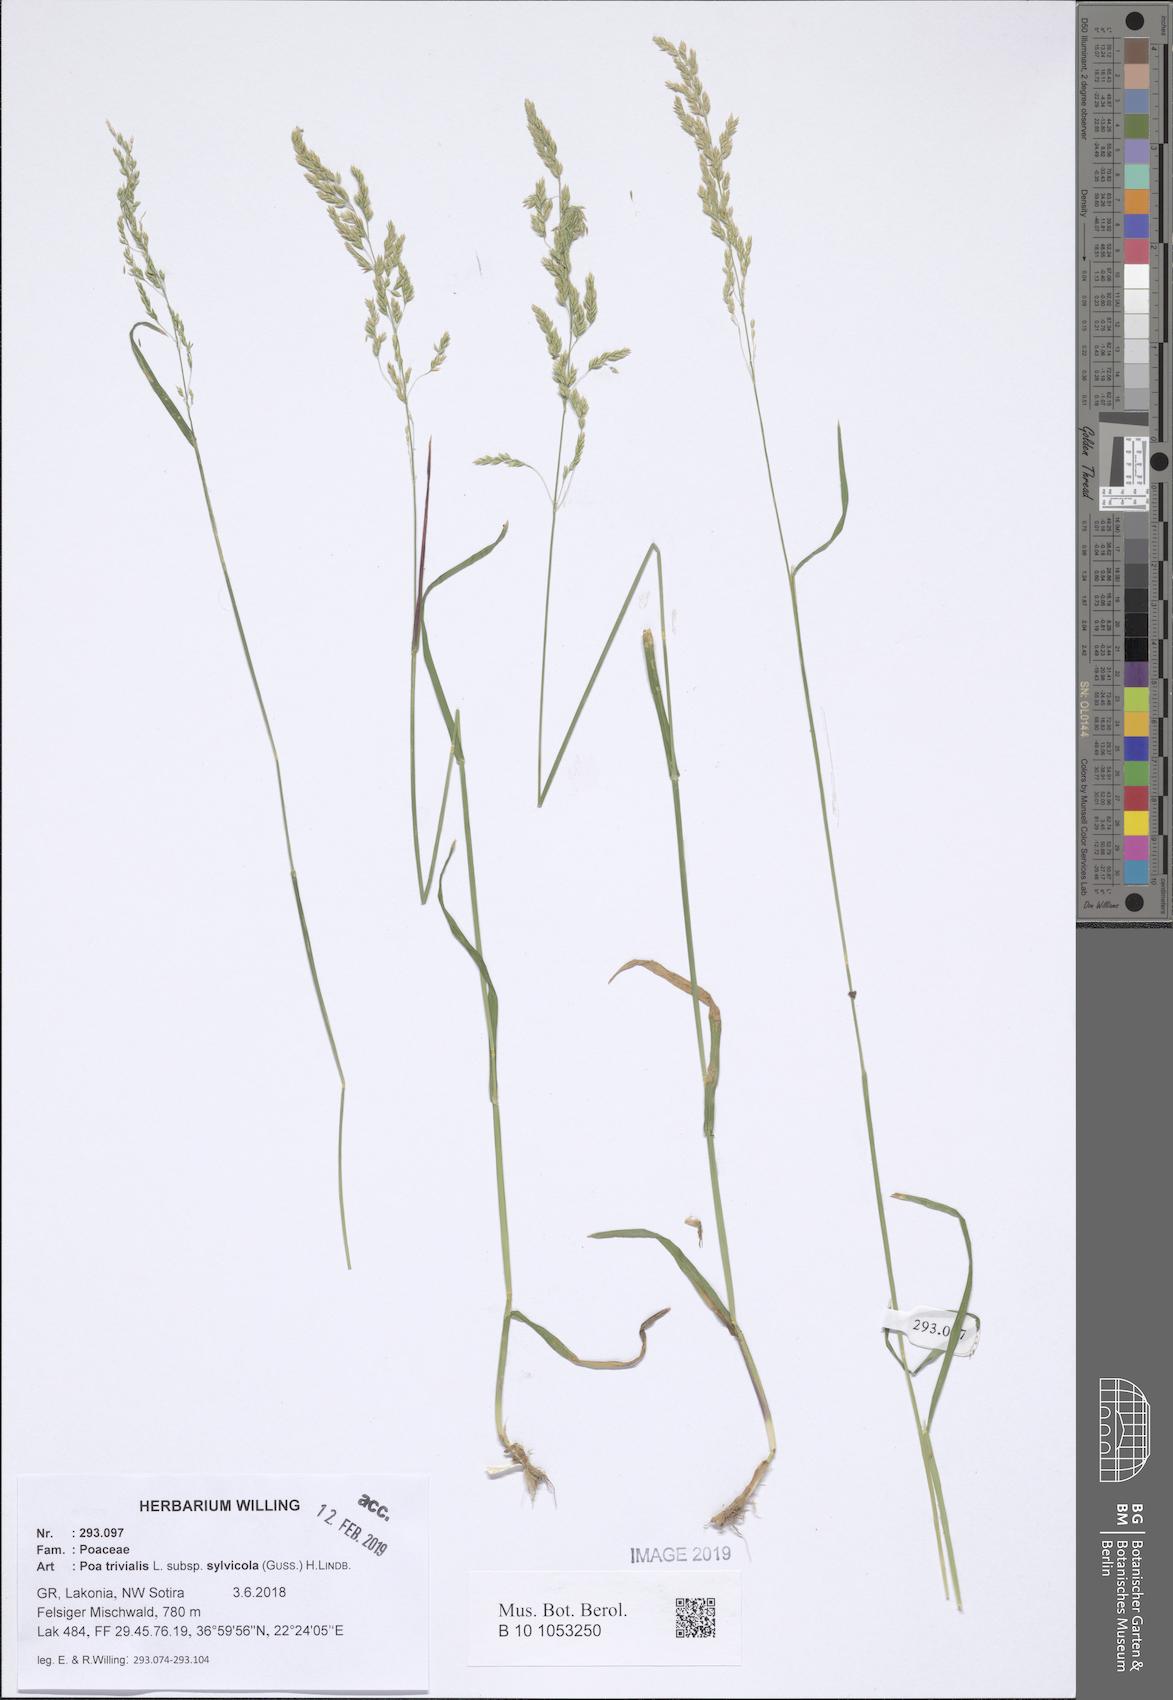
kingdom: Plantae
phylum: Tracheophyta
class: Liliopsida
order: Poales
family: Poaceae
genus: Poa
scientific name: Poa trivialis
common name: Rough bluegrass
